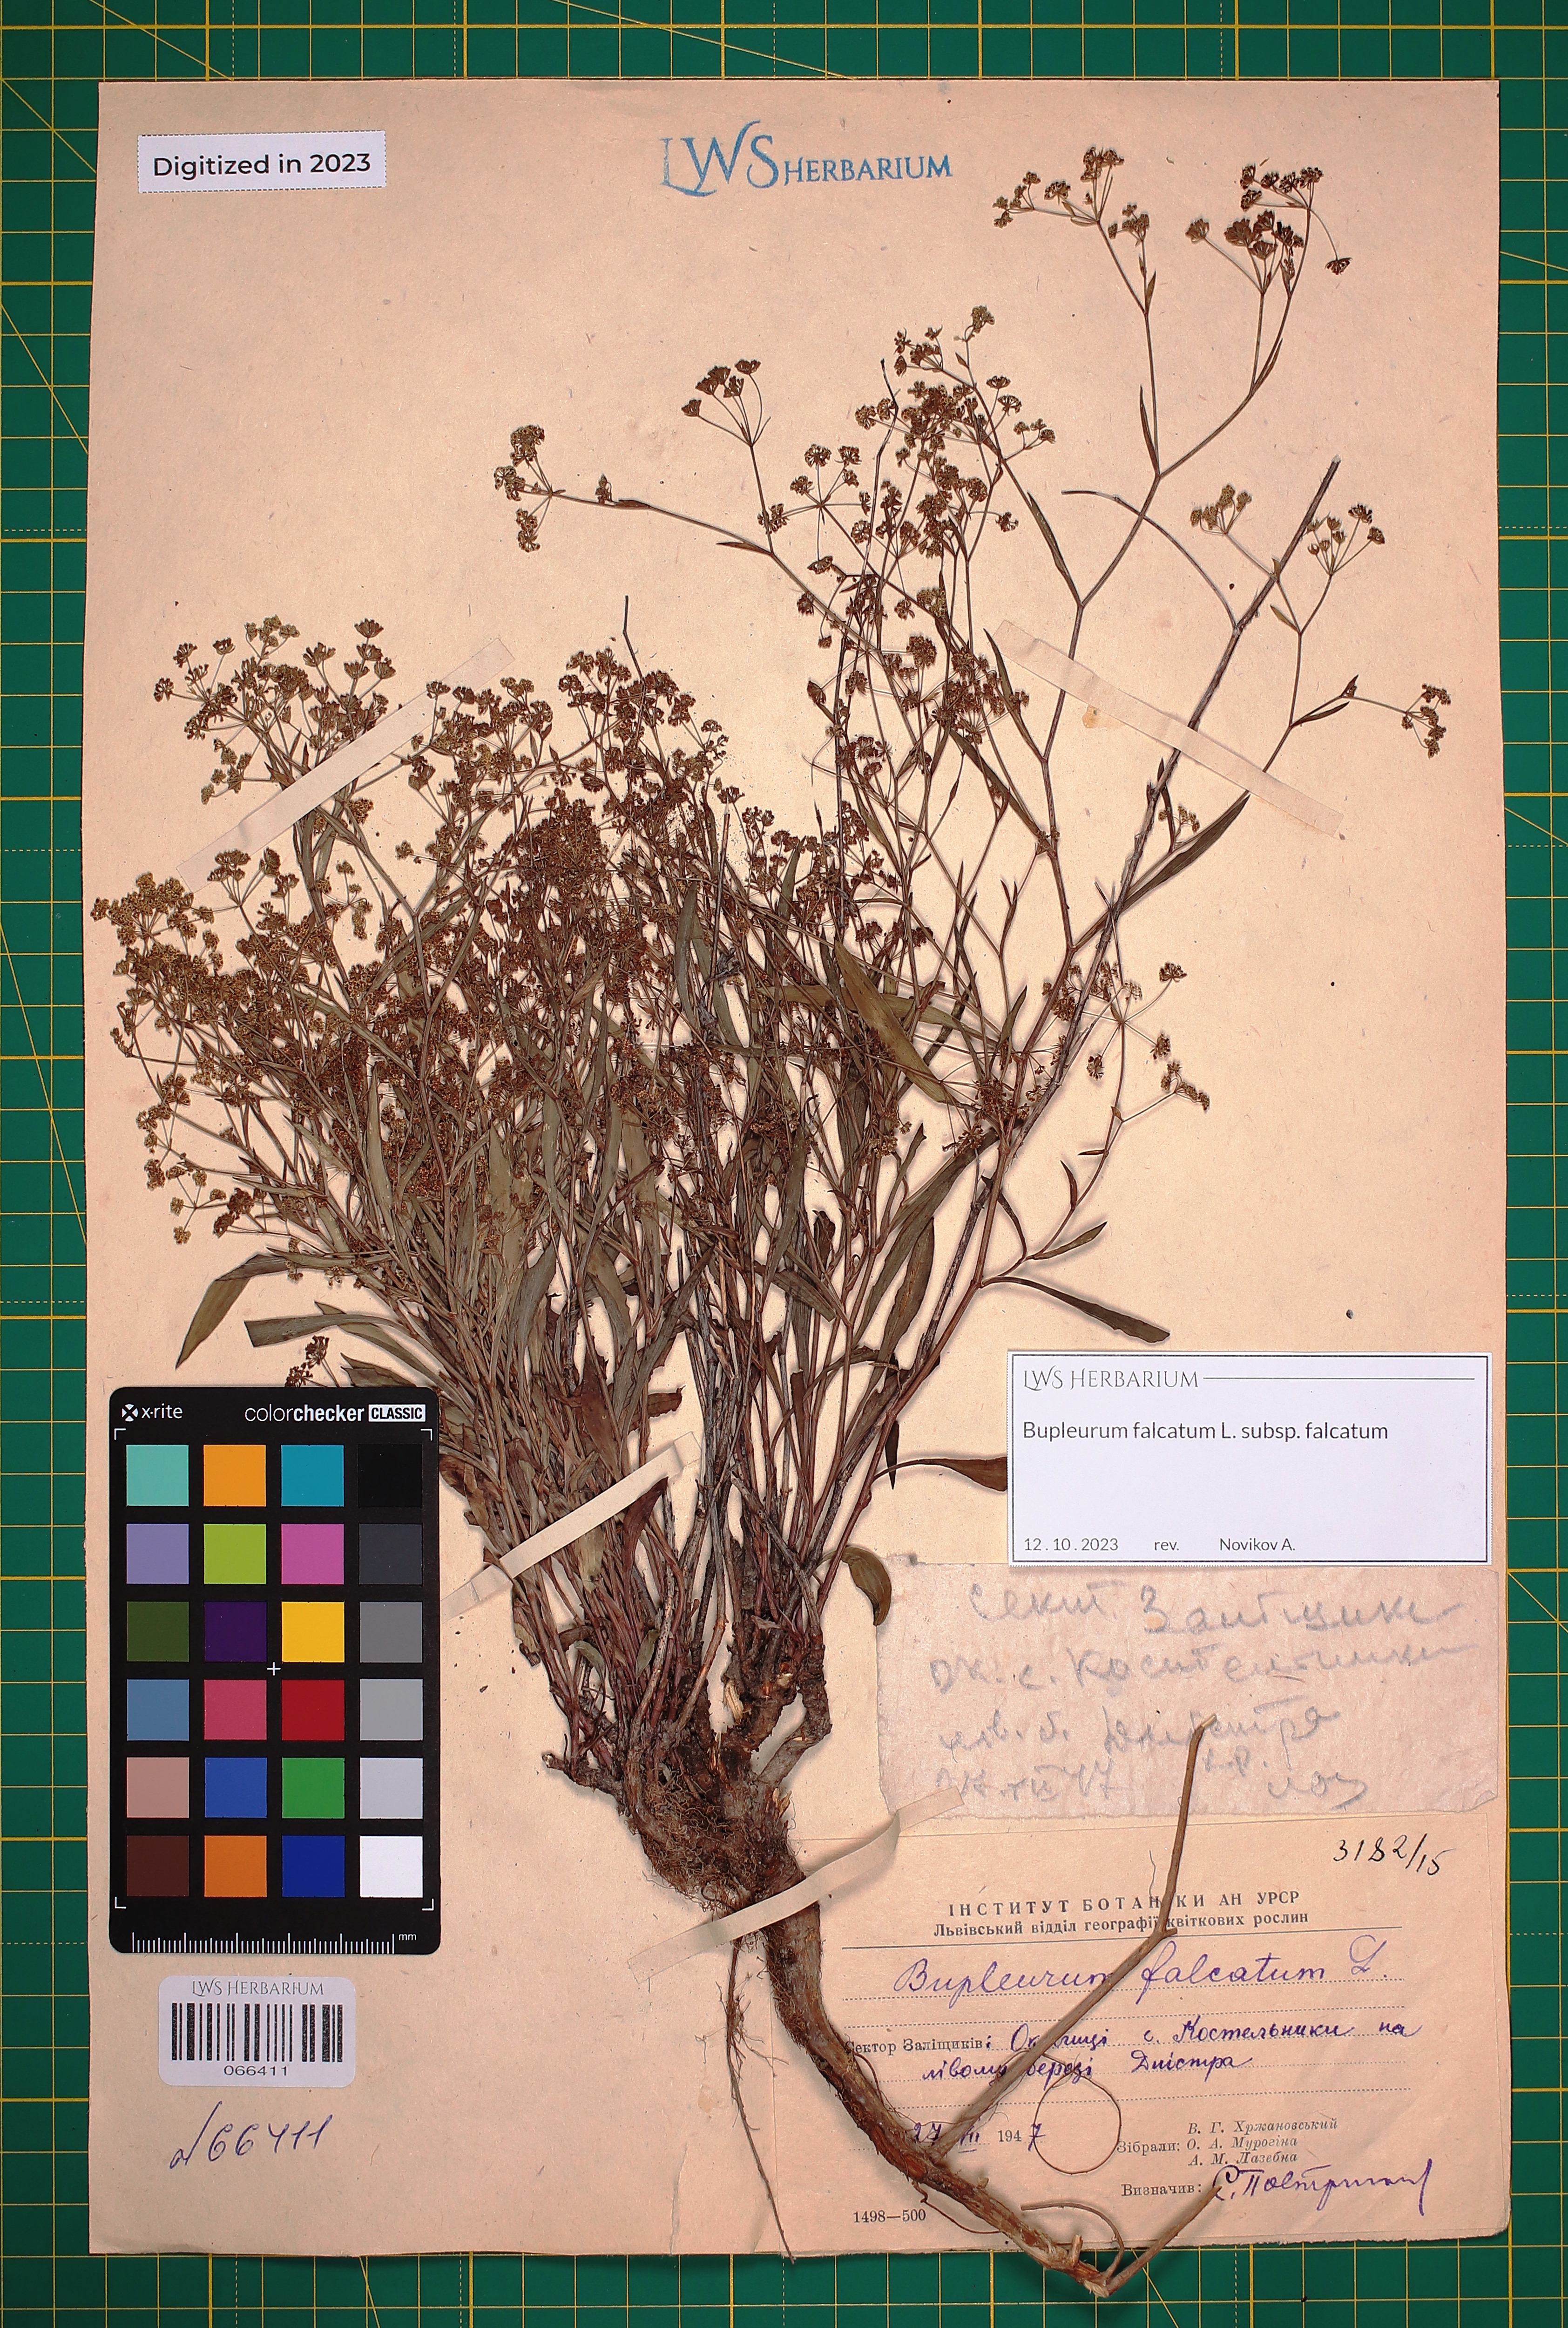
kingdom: Plantae
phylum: Tracheophyta
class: Magnoliopsida
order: Apiales
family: Apiaceae
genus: Bupleurum
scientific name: Bupleurum falcatum
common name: Sickle-leaved hare's-ear
